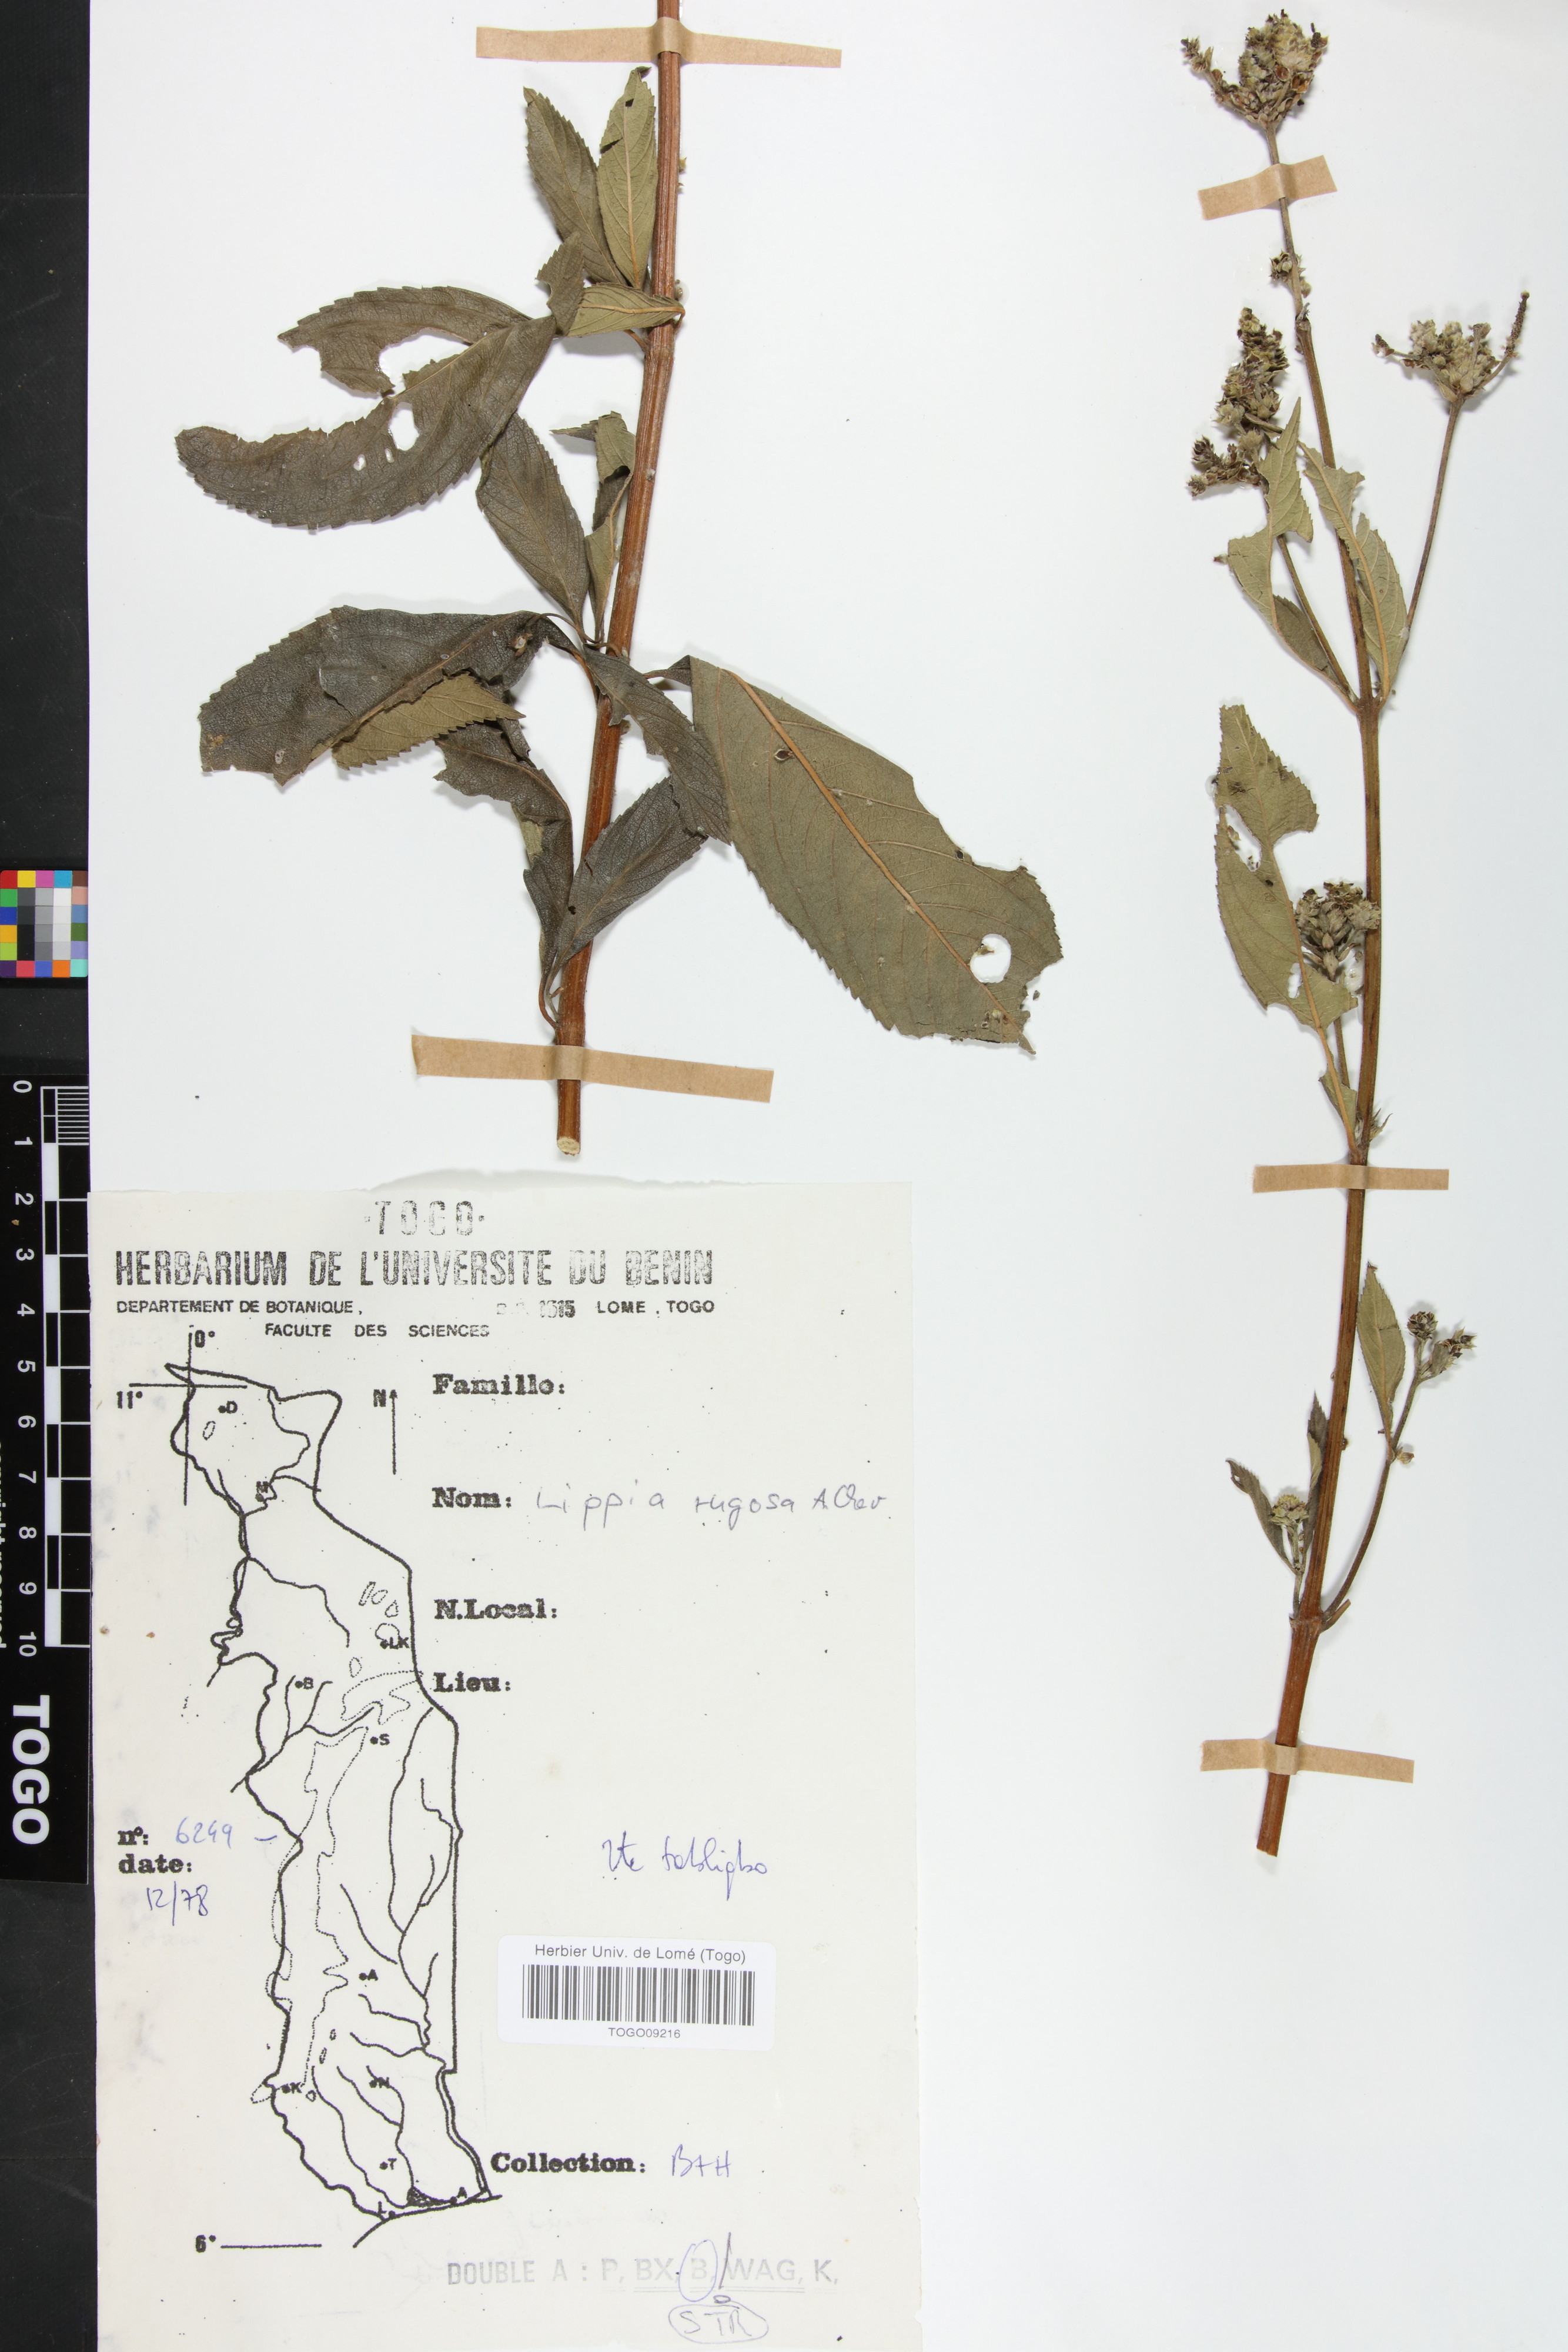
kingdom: Plantae
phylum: Tracheophyta
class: Magnoliopsida
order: Lamiales
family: Verbenaceae
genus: Lippia
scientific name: Lippia rugosa
